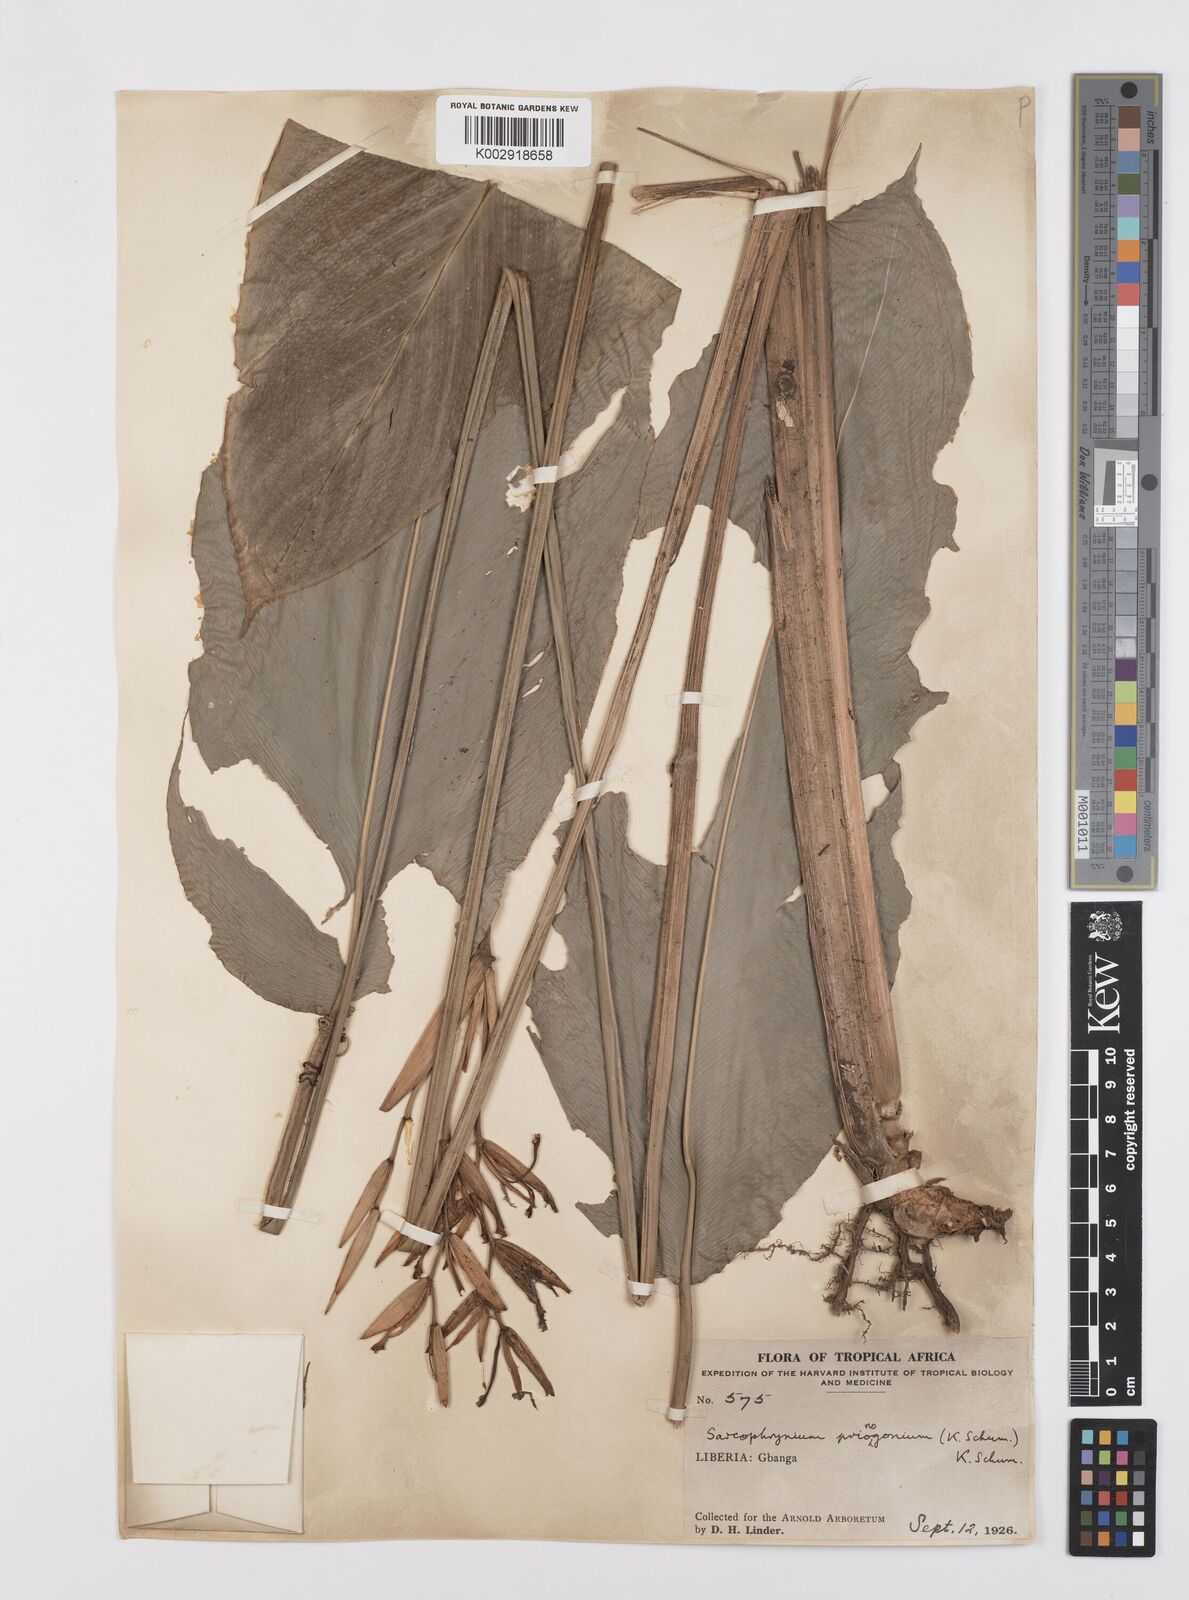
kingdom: Plantae
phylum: Tracheophyta
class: Liliopsida
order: Zingiberales
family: Marantaceae
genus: Sarcophrynium
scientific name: Sarcophrynium prionogonium
